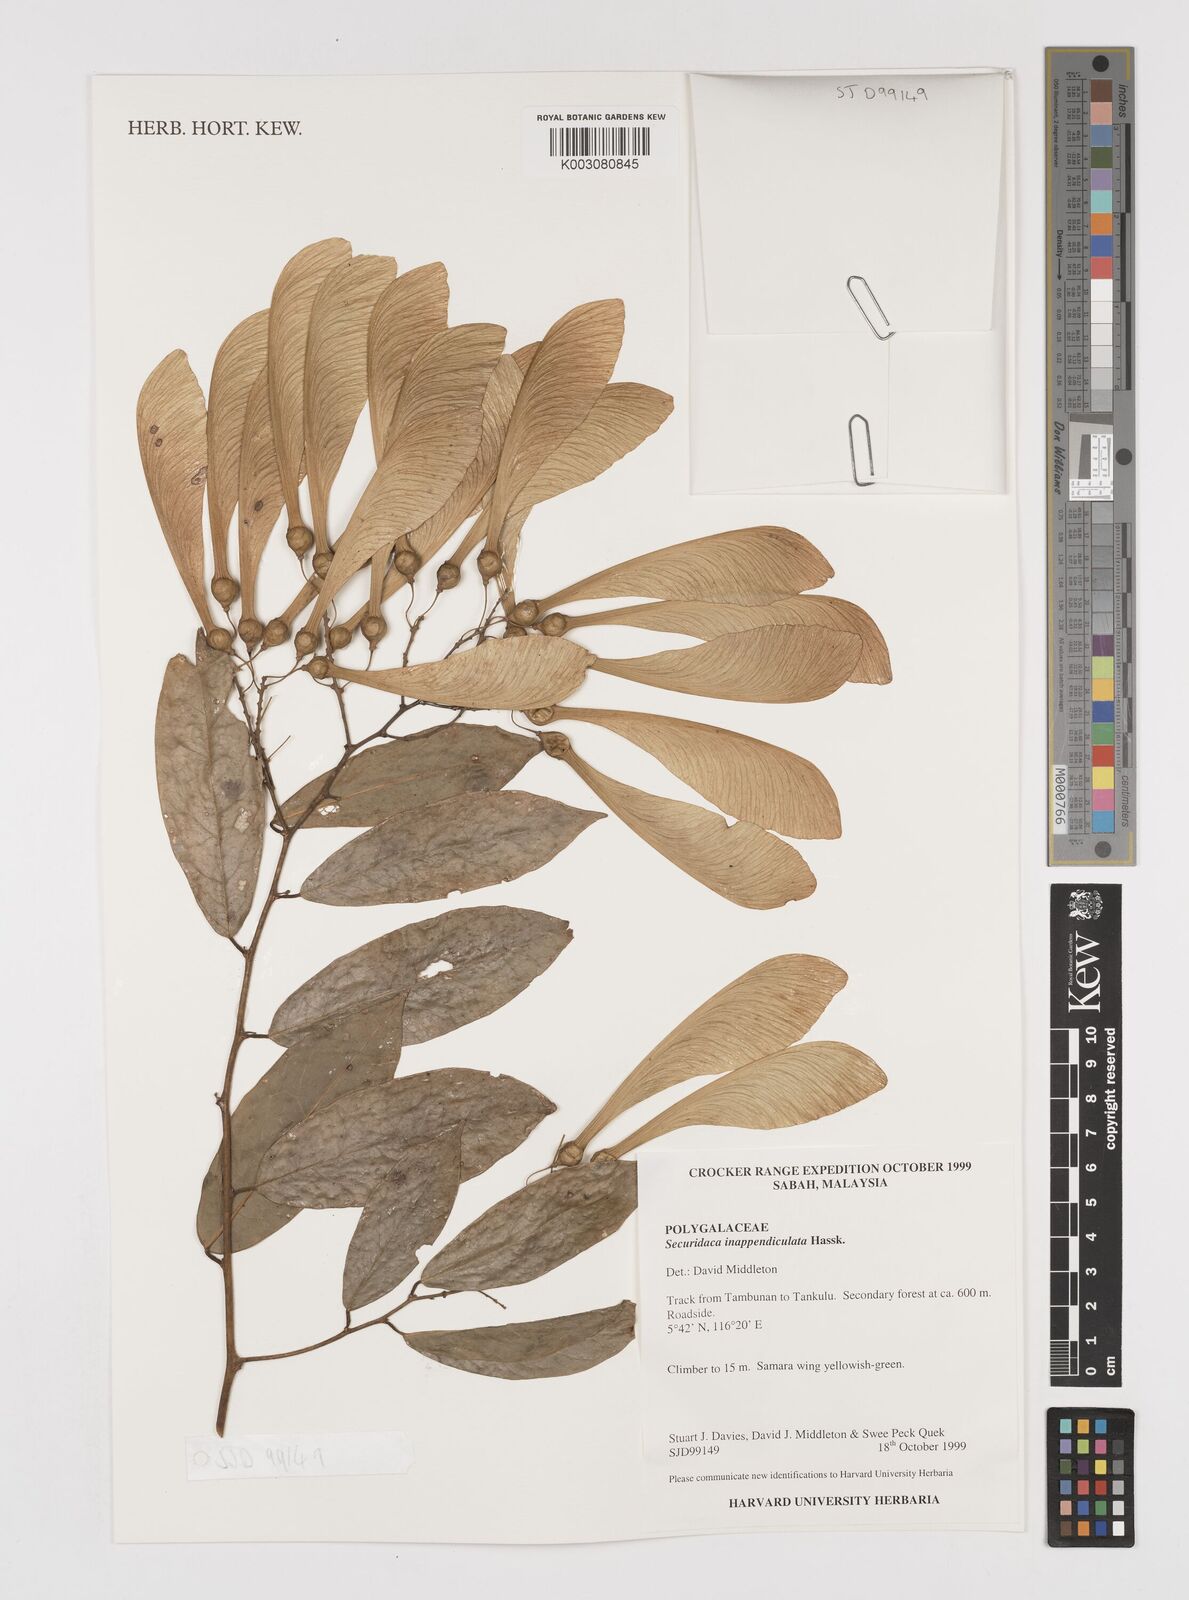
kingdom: Plantae
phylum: Tracheophyta
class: Magnoliopsida
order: Fabales
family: Polygalaceae
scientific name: Polygalaceae
